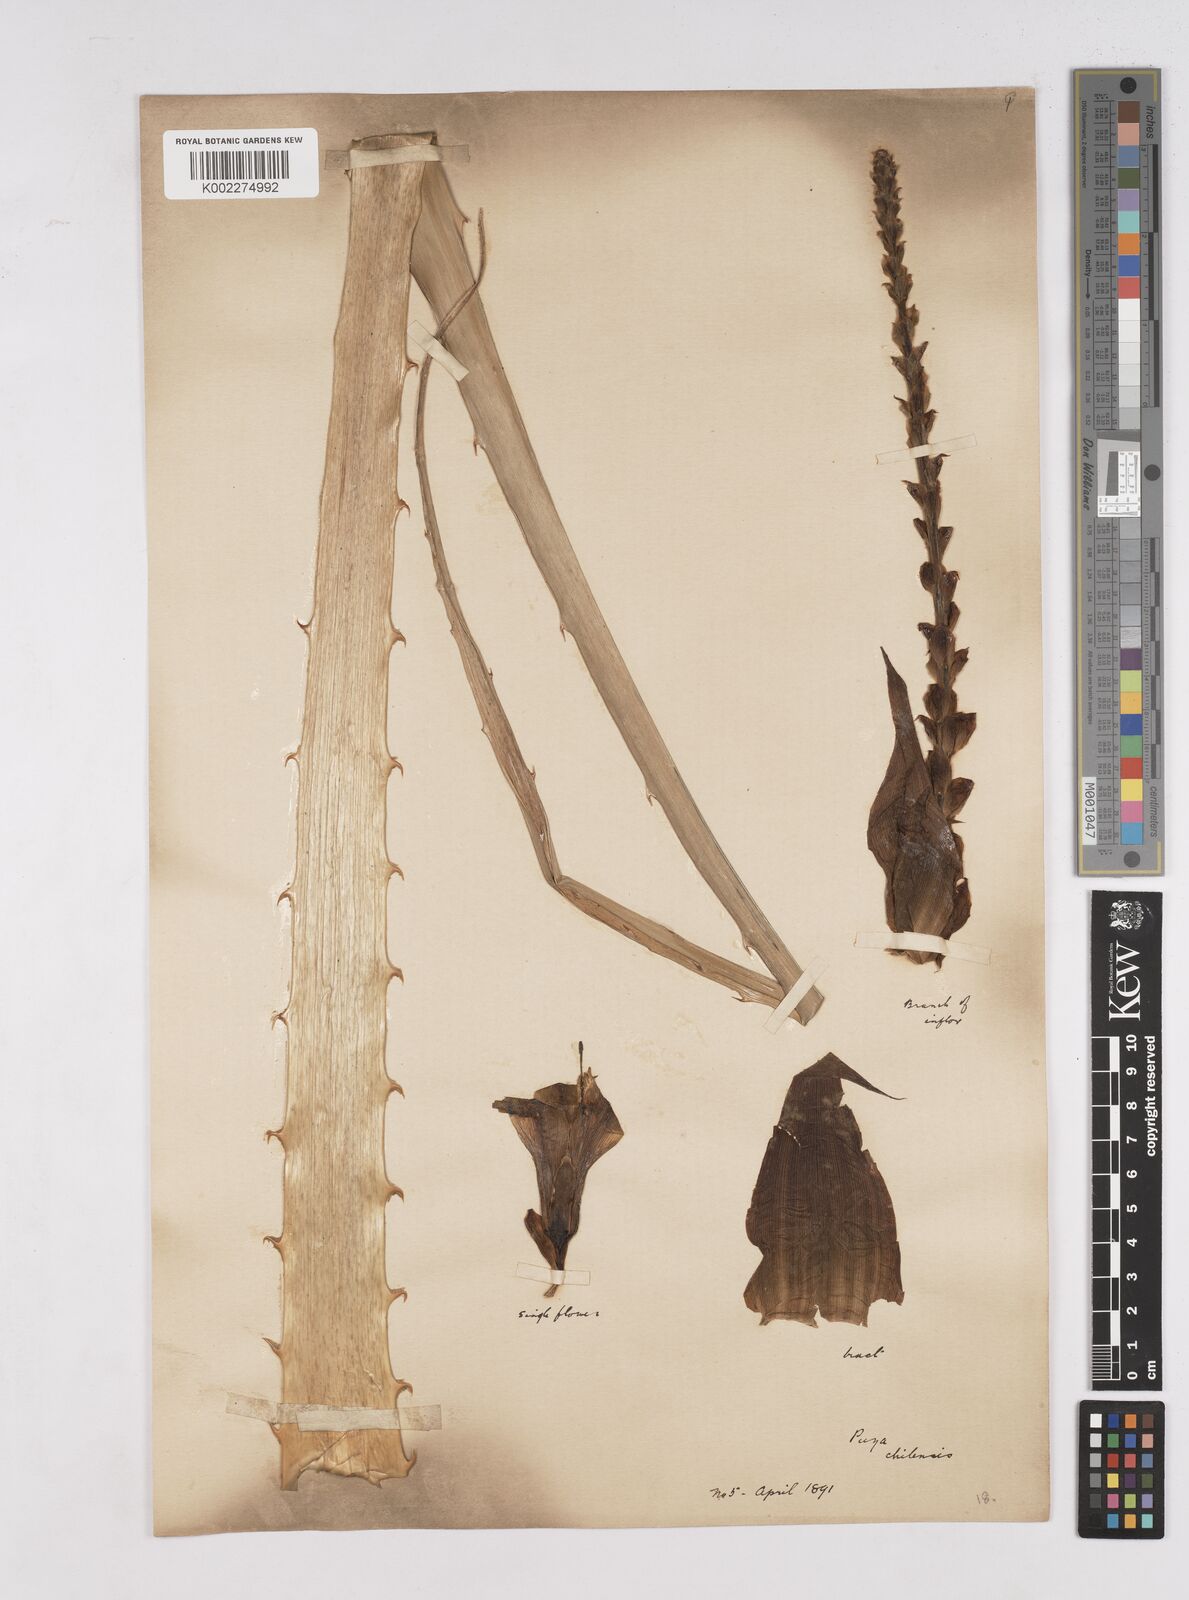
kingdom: Plantae
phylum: Tracheophyta
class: Liliopsida
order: Poales
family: Bromeliaceae
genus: Puya
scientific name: Puya chilensis
